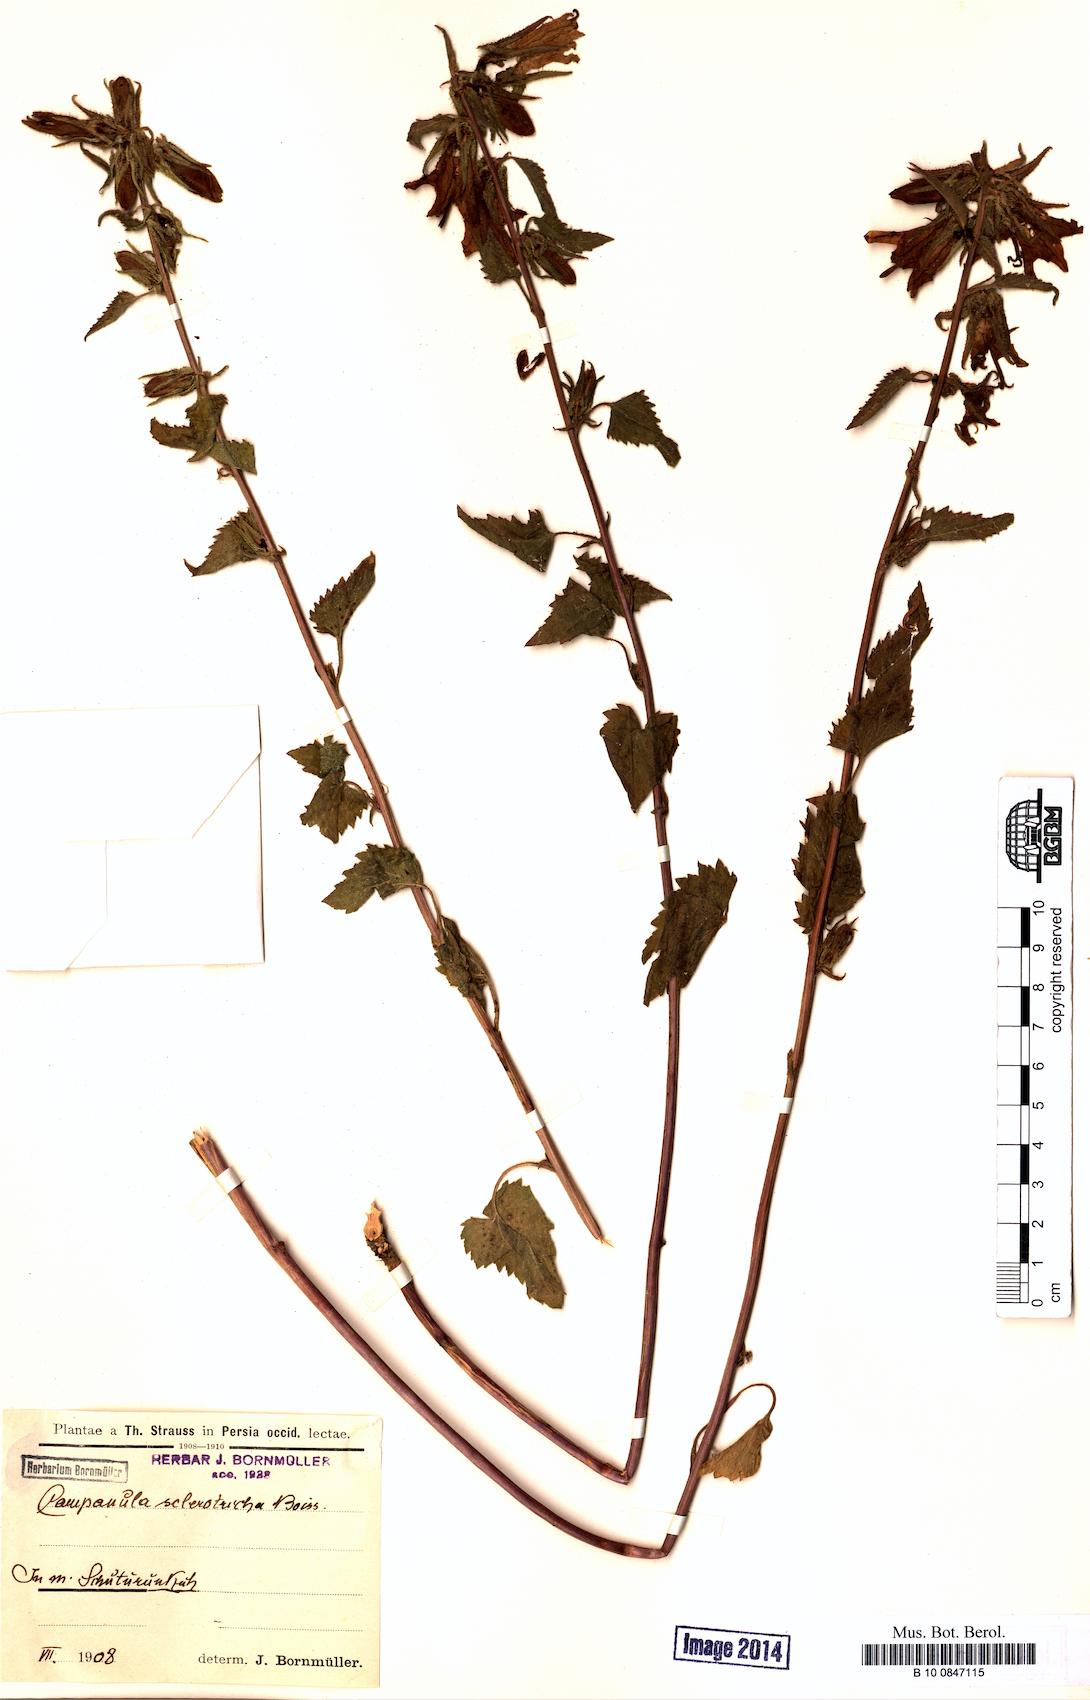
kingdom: Plantae
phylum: Tracheophyta
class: Magnoliopsida
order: Asterales
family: Campanulaceae
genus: Campanula
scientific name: Campanula sclerotricha
